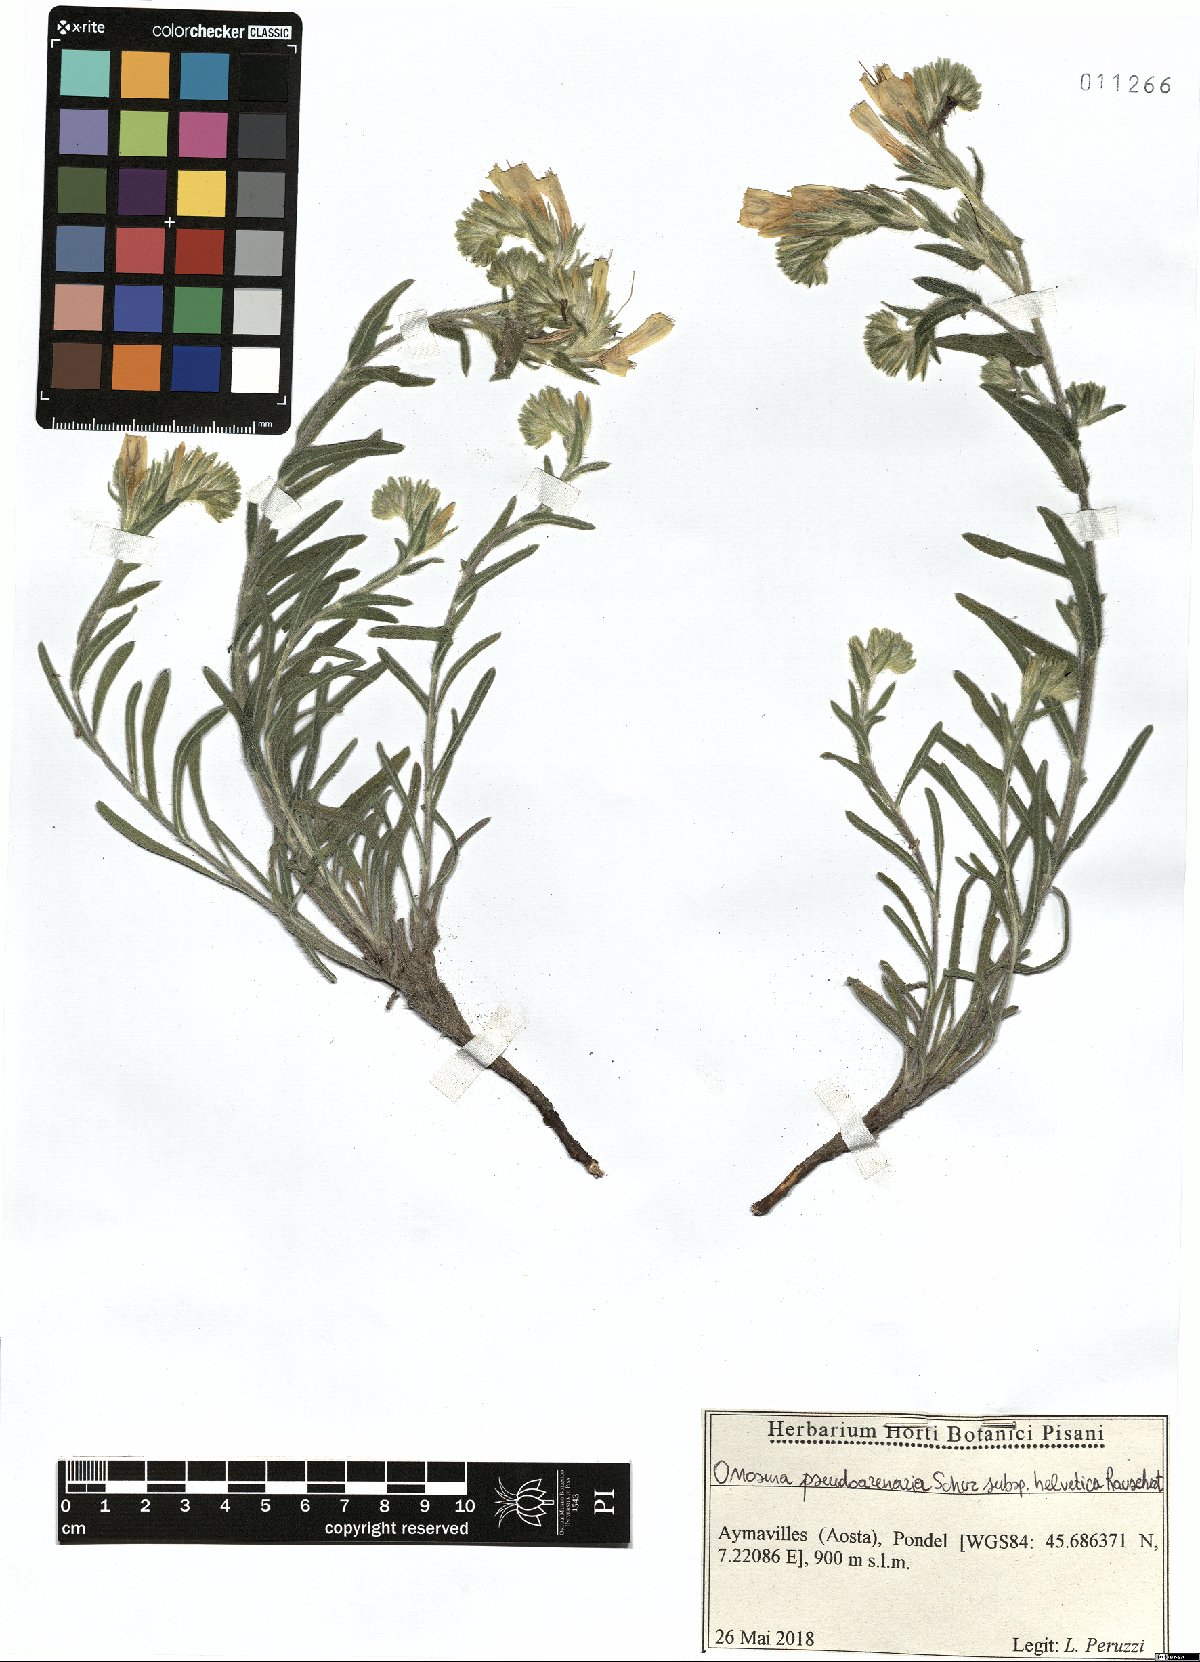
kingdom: Plantae
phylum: Tracheophyta
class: Magnoliopsida
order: Boraginales
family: Boraginaceae
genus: Onosma
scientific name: Onosma helvetica
